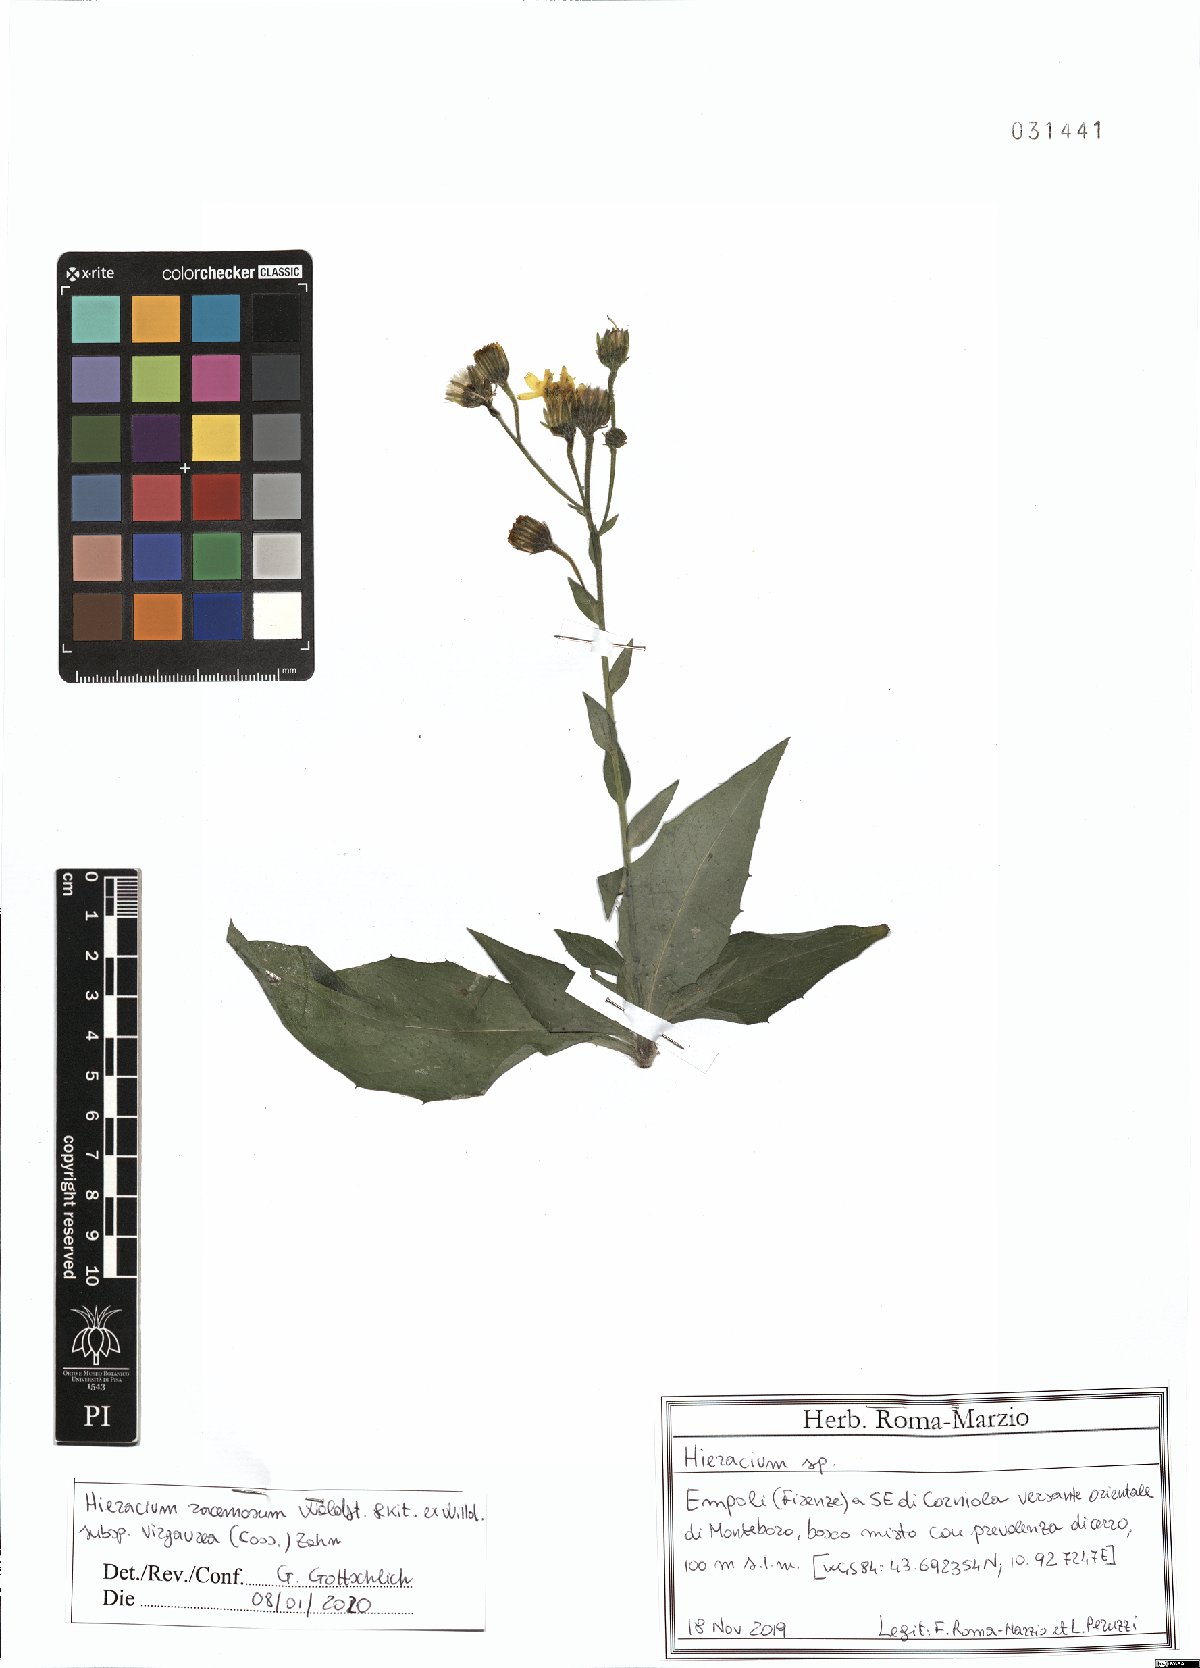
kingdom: Plantae
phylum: Tracheophyta
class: Magnoliopsida
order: Asterales
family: Asteraceae
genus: Hieracium
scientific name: Hieracium racemosum
